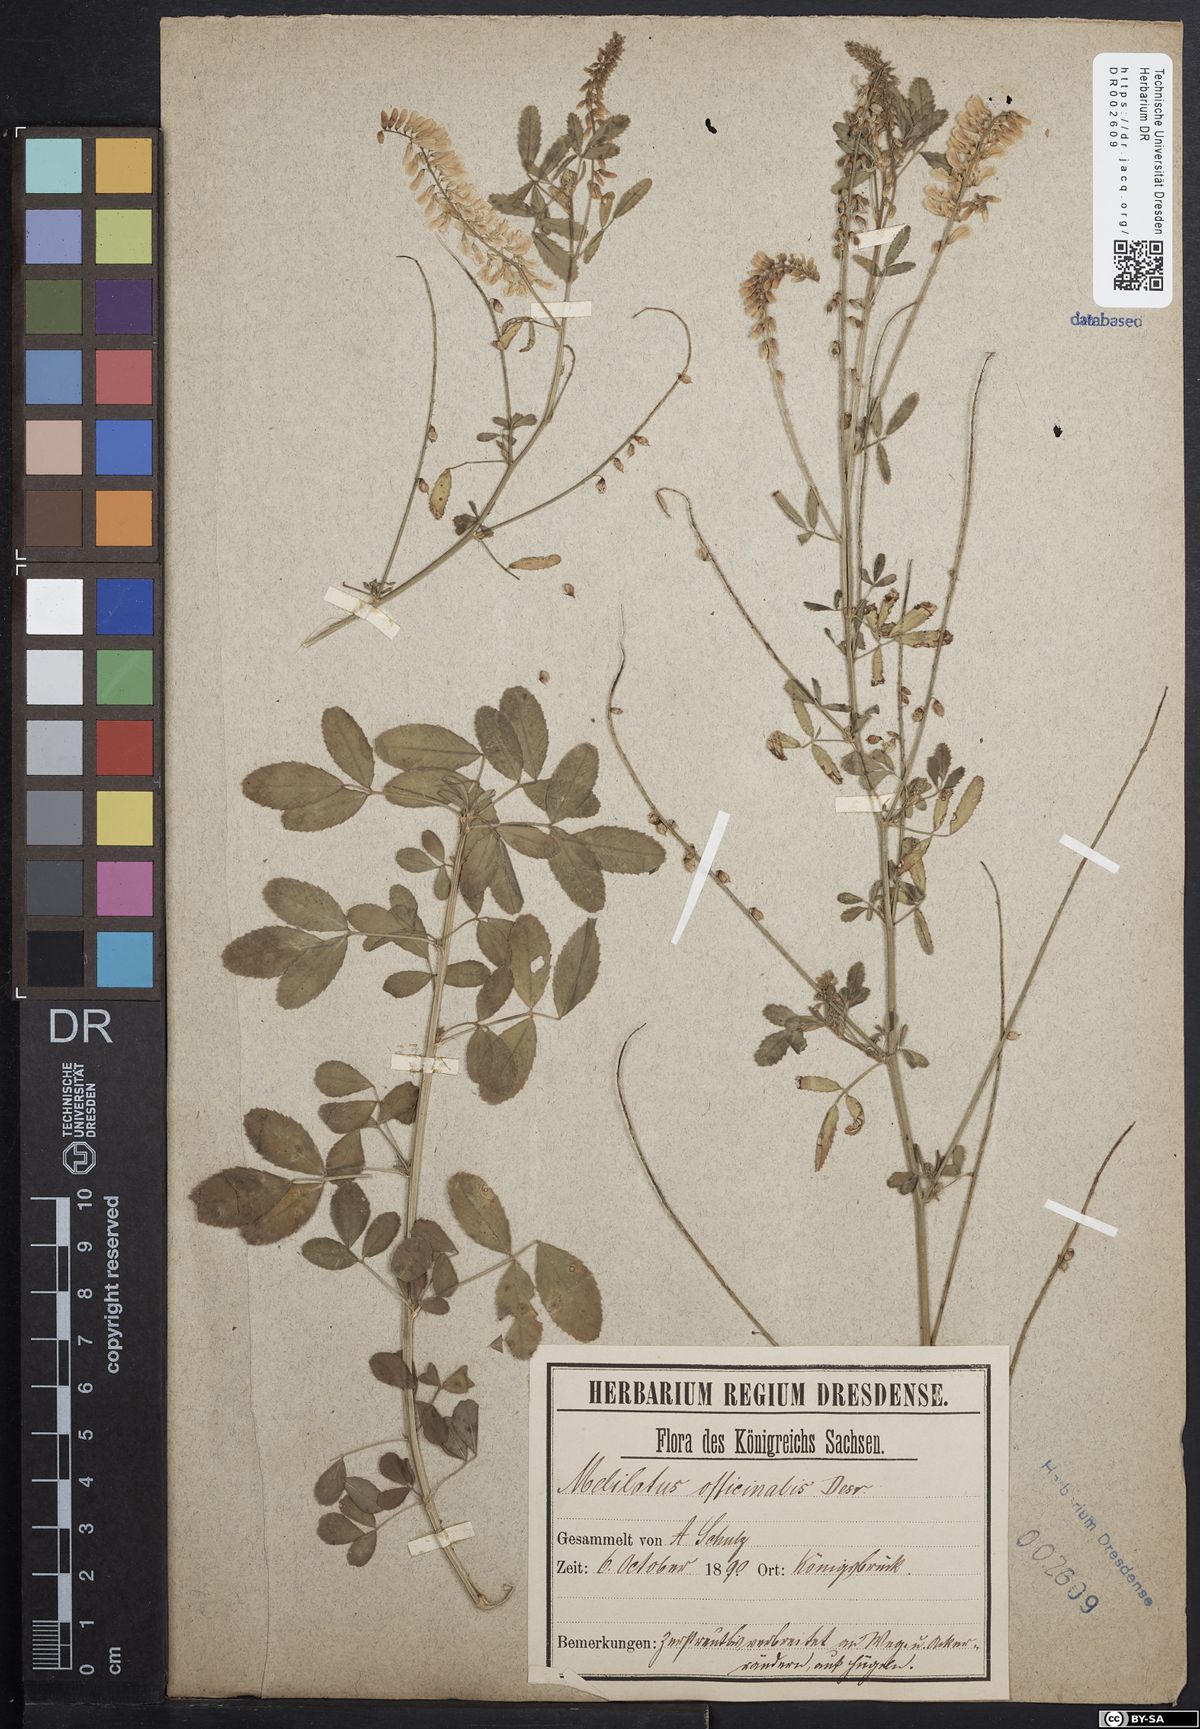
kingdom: Plantae
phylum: Tracheophyta
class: Magnoliopsida
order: Fabales
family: Fabaceae
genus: Melilotus
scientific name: Melilotus officinalis
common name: Sweetclover
